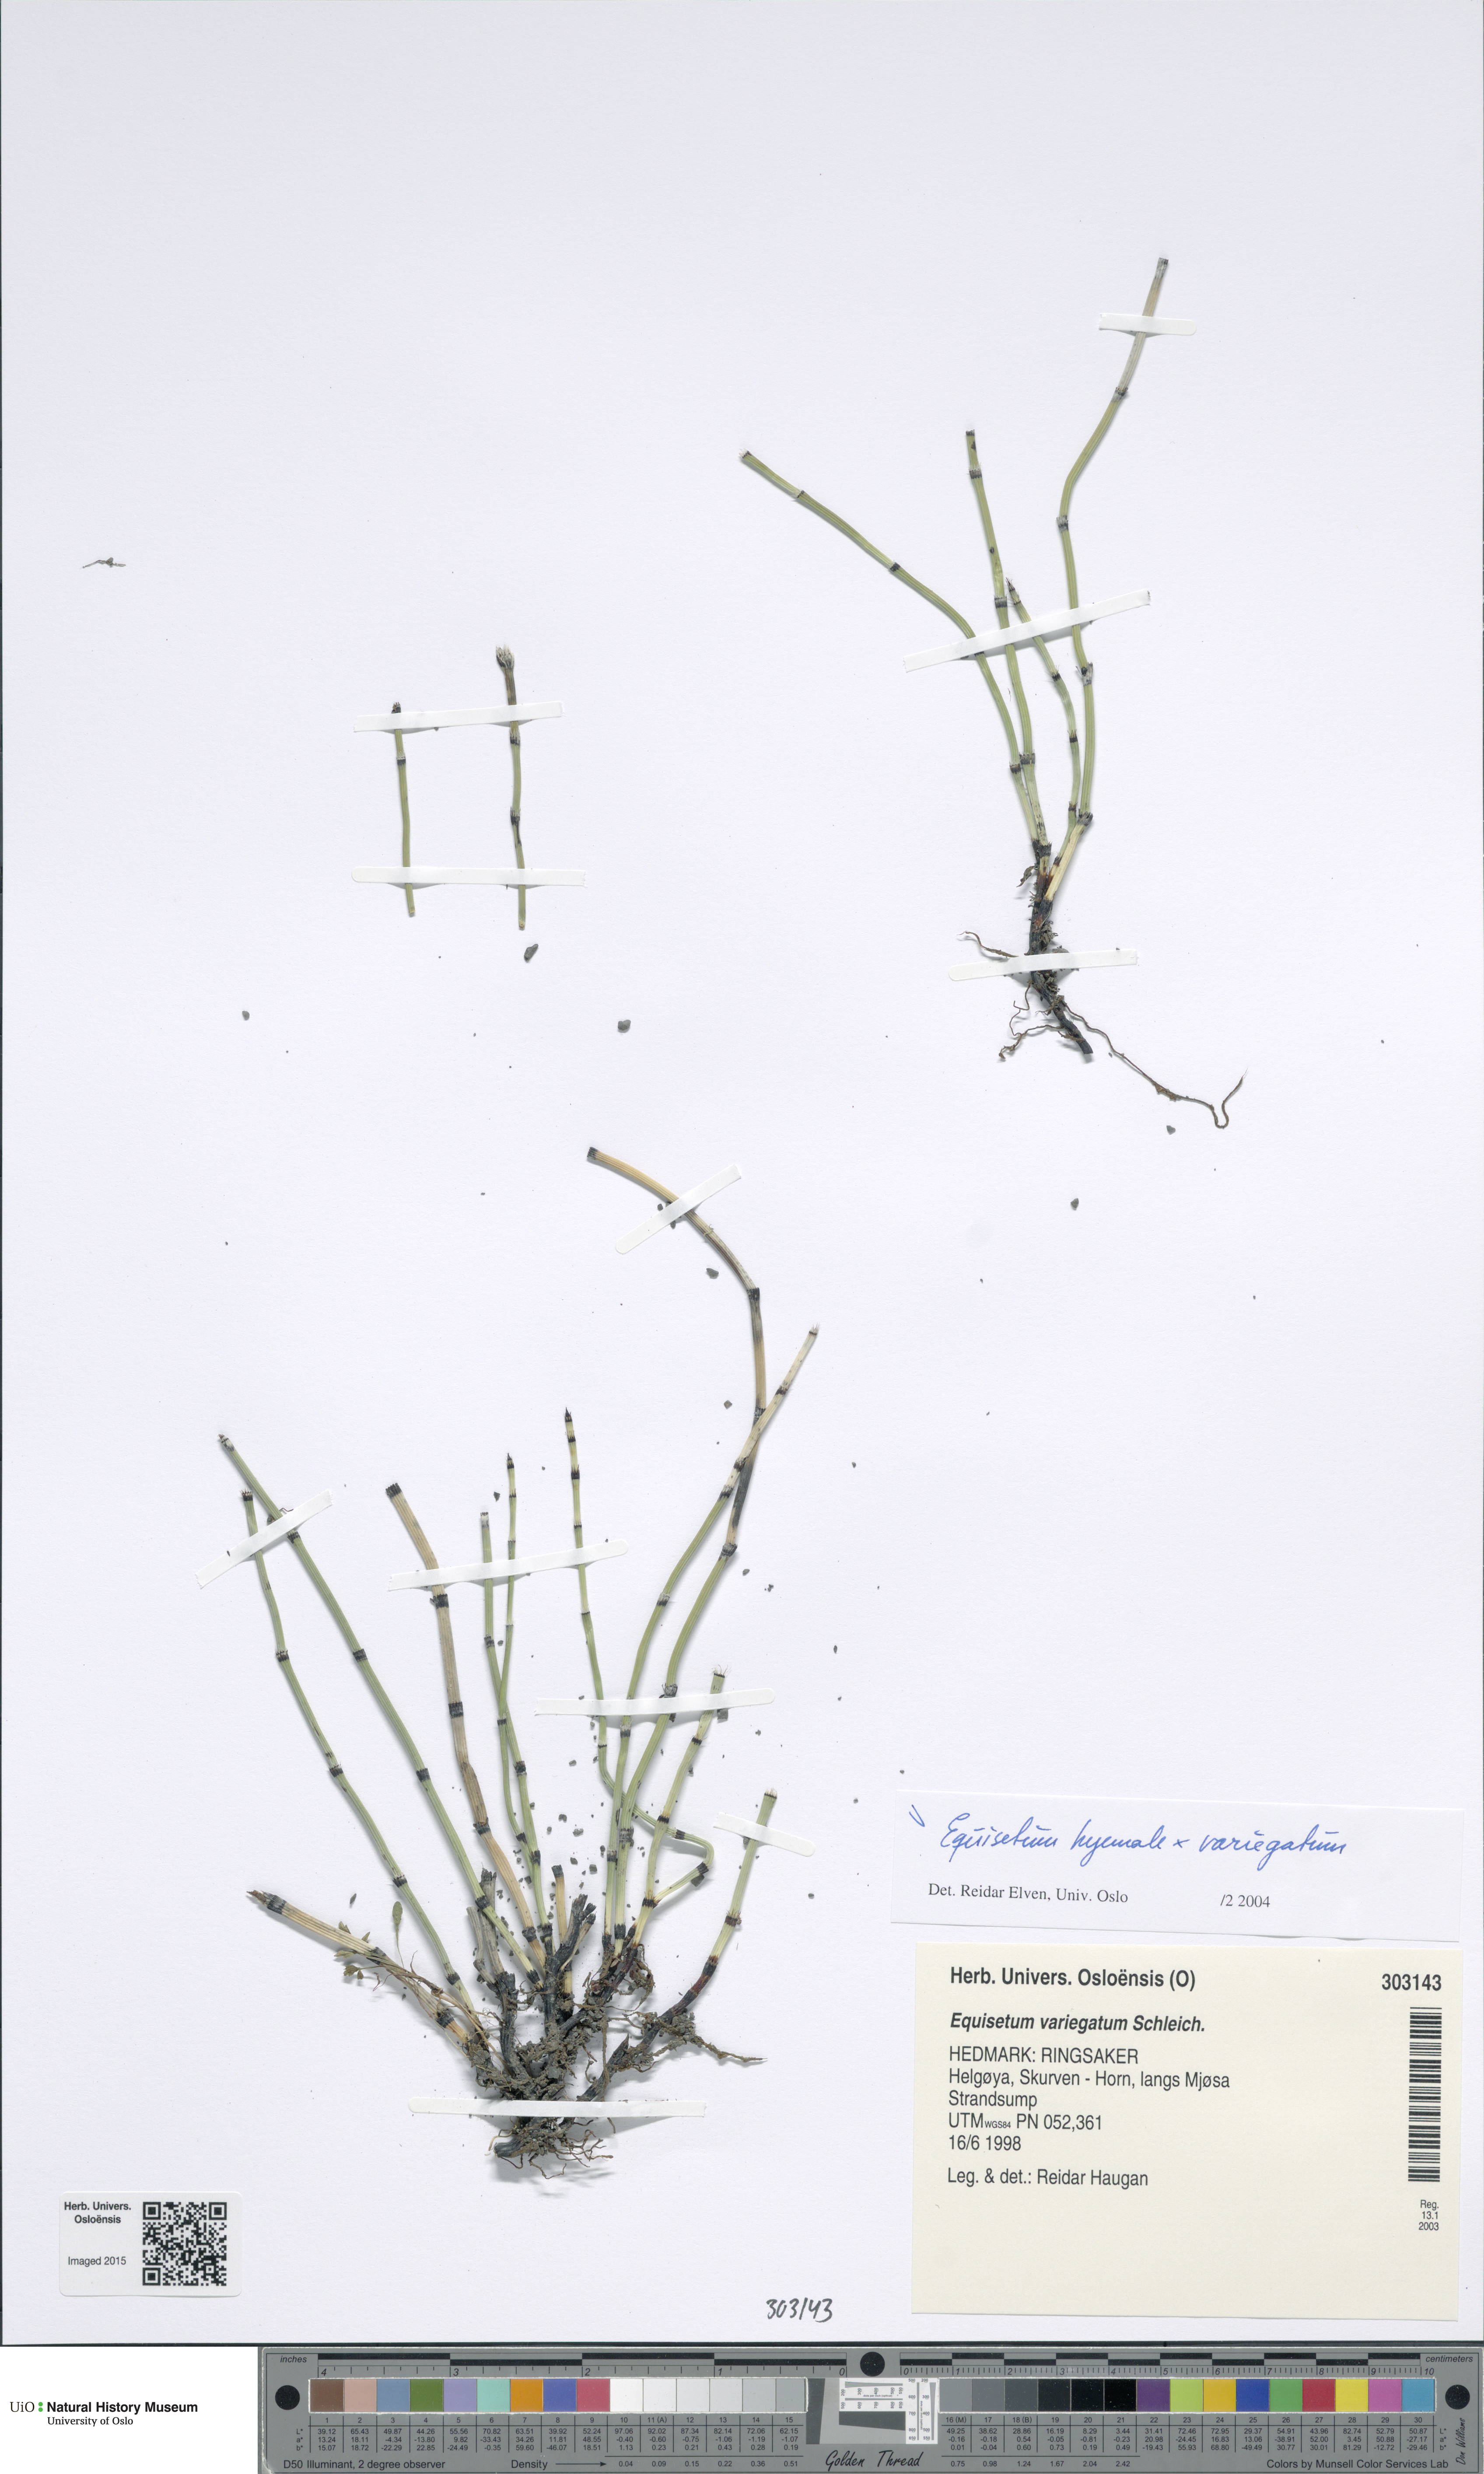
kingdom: Plantae
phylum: Tracheophyta
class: Polypodiopsida
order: Equisetales
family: Equisetaceae
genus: Equisetum
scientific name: Equisetum
